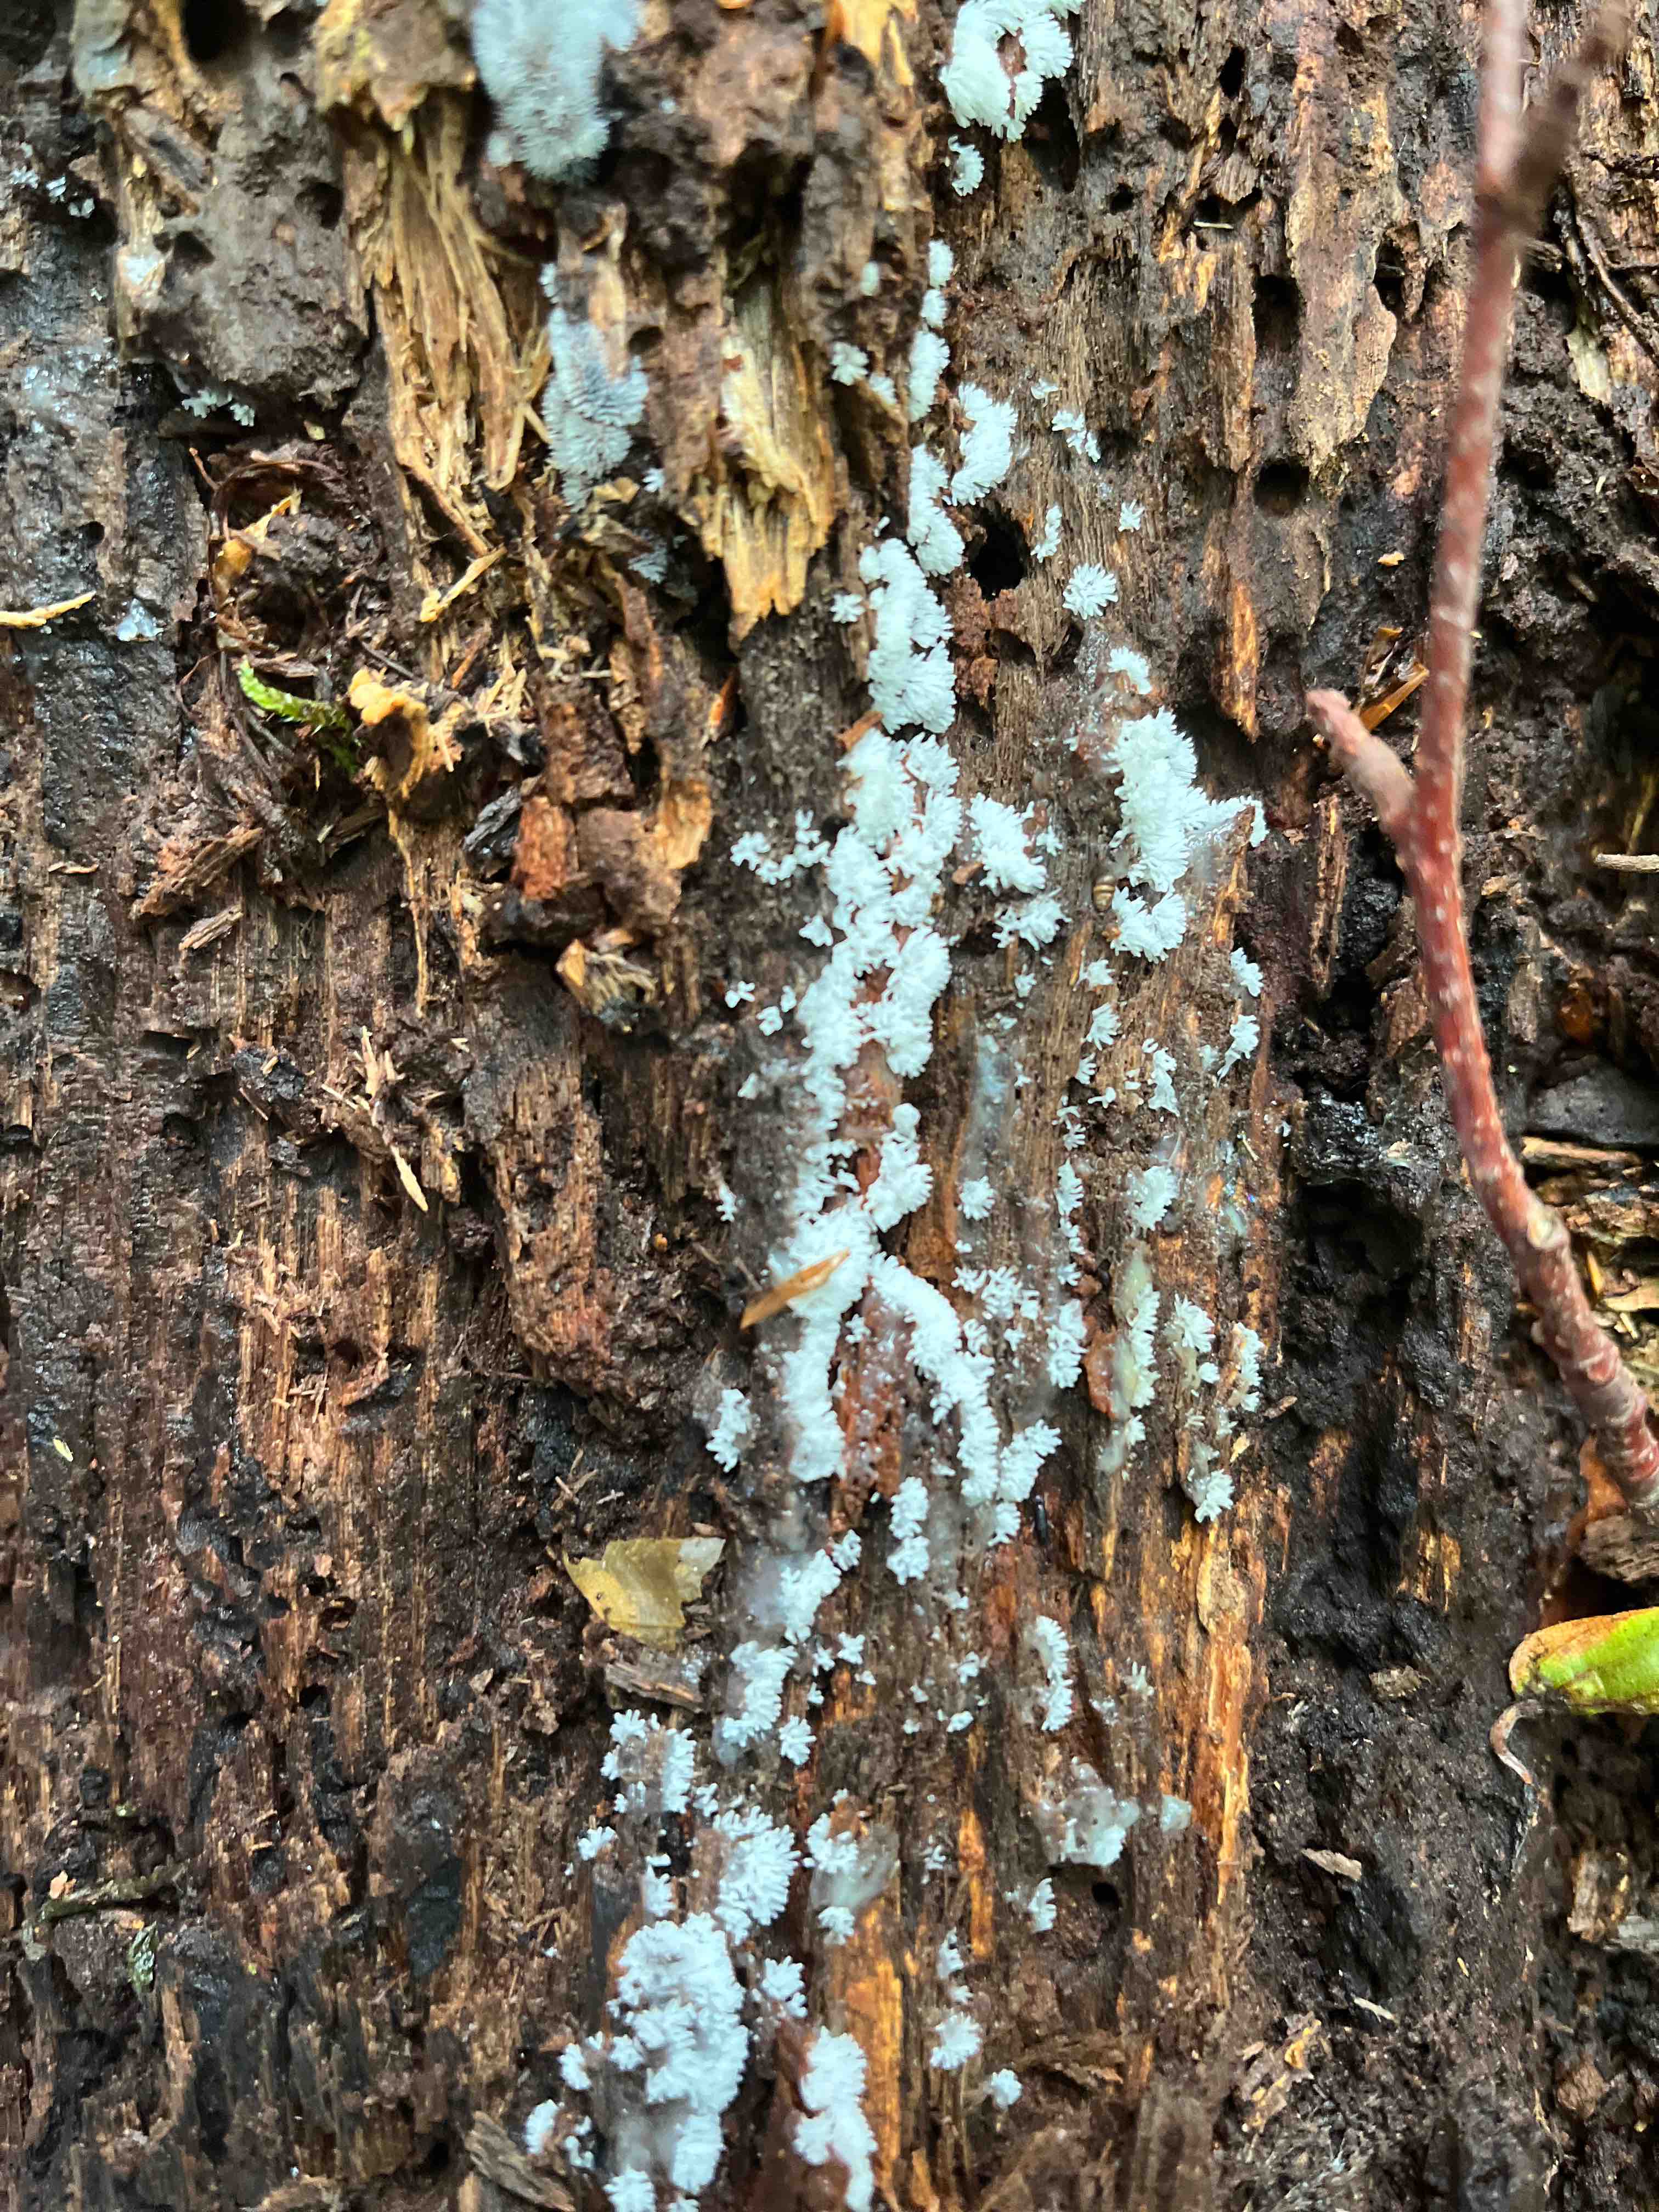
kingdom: Protozoa
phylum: Mycetozoa
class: Protosteliomycetes
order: Ceratiomyxales
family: Ceratiomyxaceae
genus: Ceratiomyxa
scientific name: Ceratiomyxa fruticulosa
